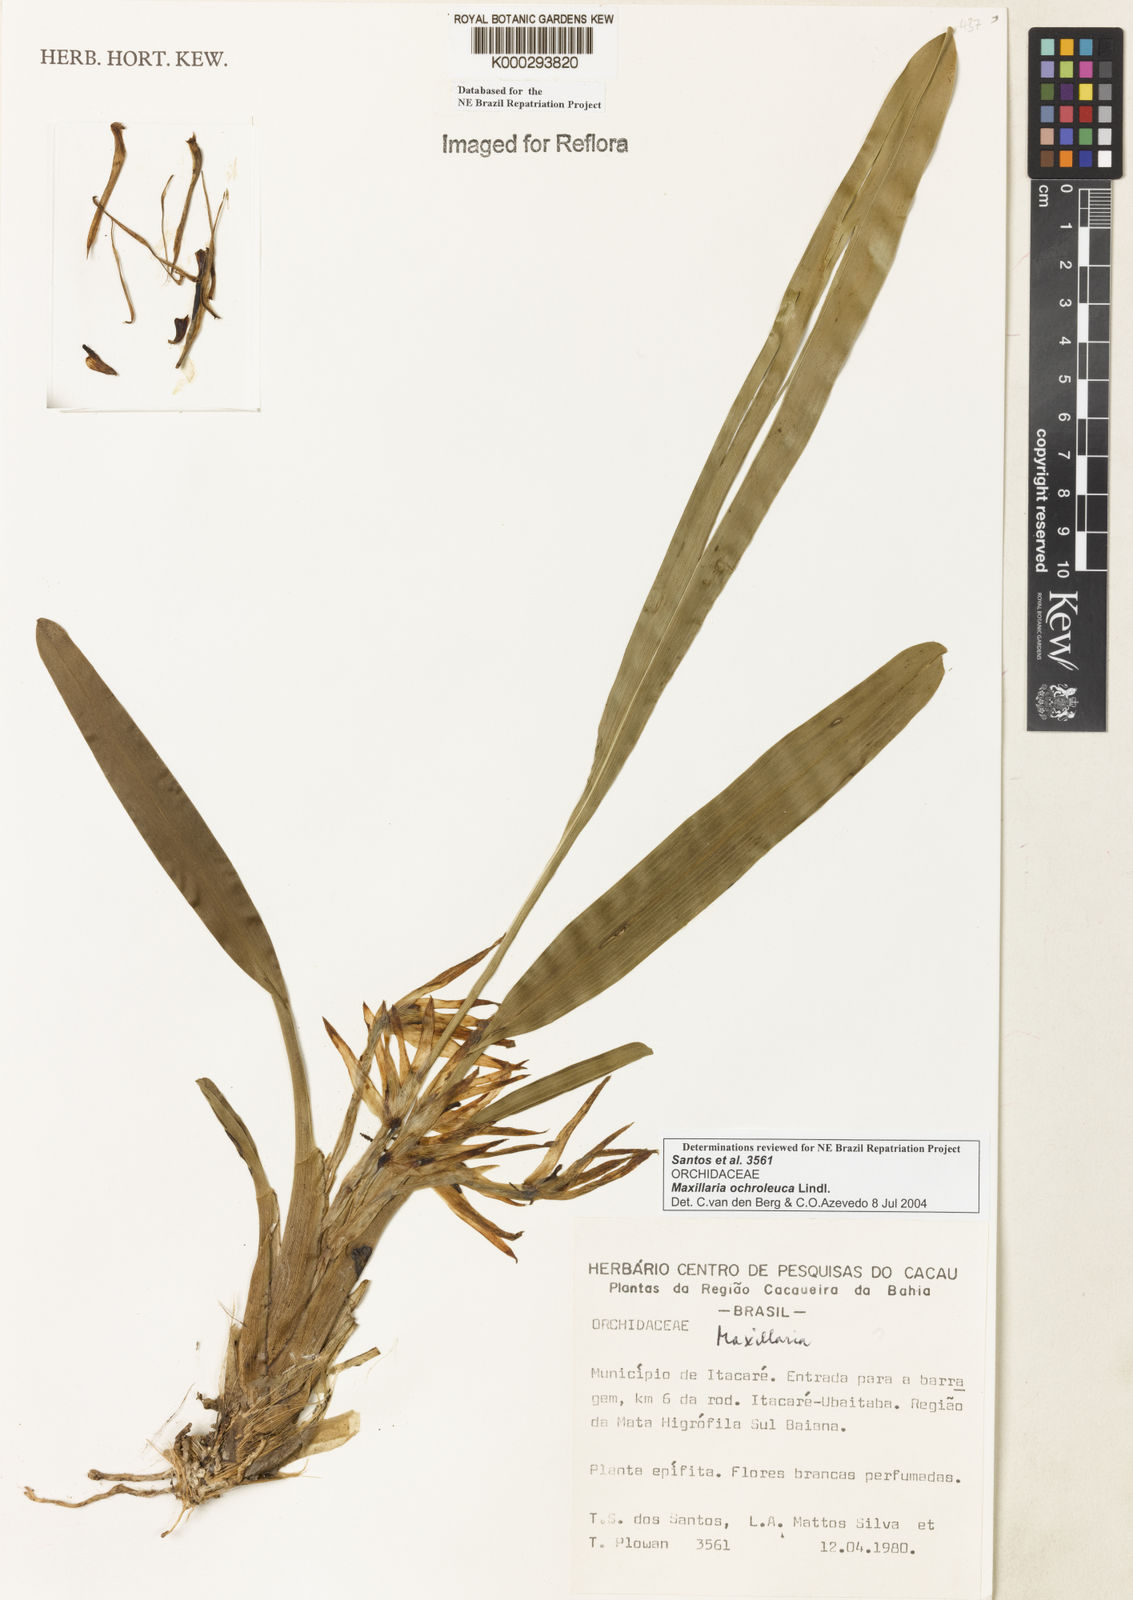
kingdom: Plantae
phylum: Tracheophyta
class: Liliopsida
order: Asparagales
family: Orchidaceae
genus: Maxillaria
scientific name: Maxillaria ochroleuca
